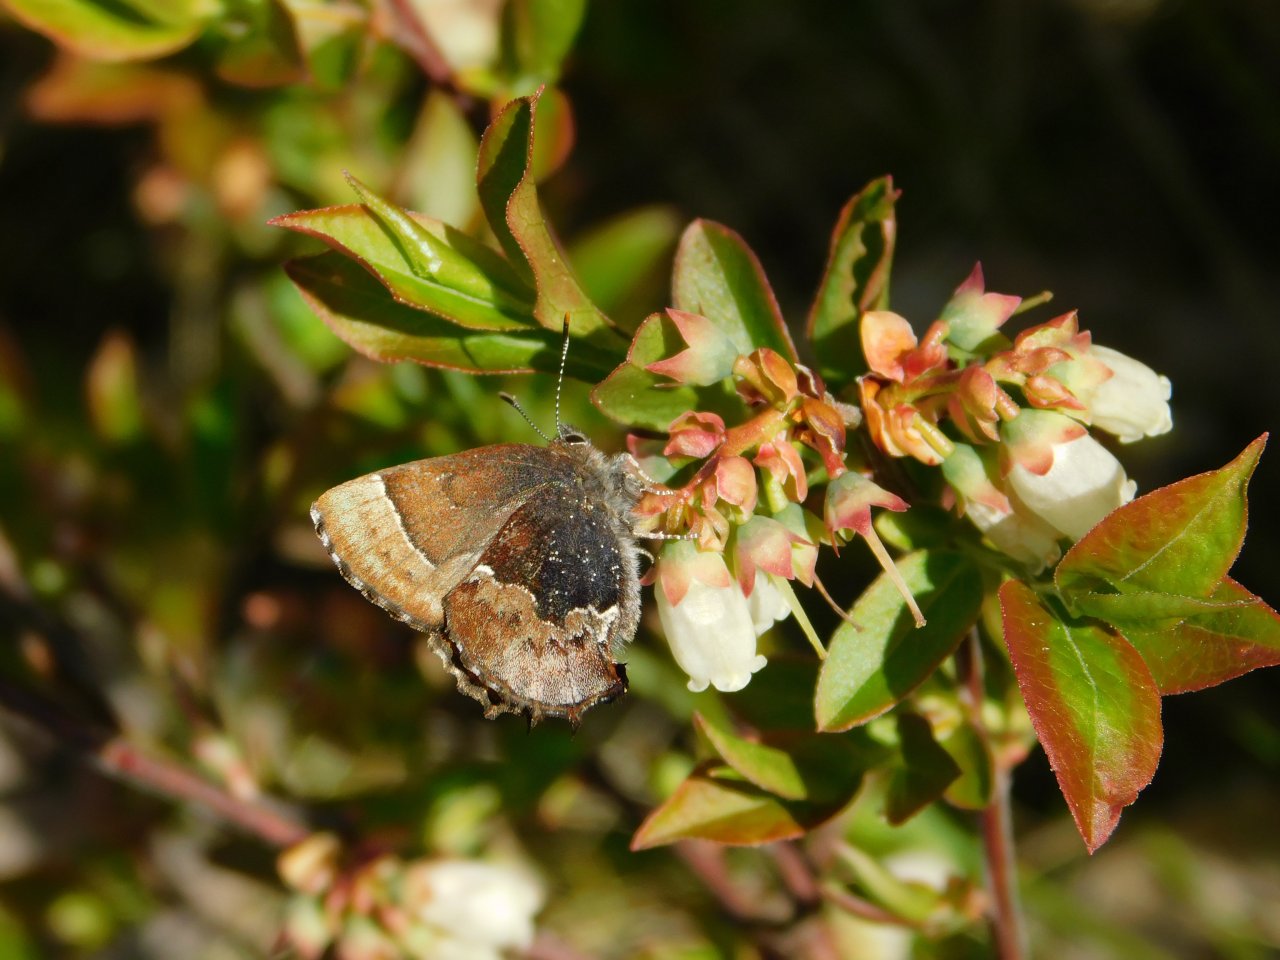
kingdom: Animalia
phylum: Arthropoda
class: Insecta
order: Lepidoptera
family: Lycaenidae
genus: Incisalia
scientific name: Incisalia henrici
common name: Henry's Elfin
